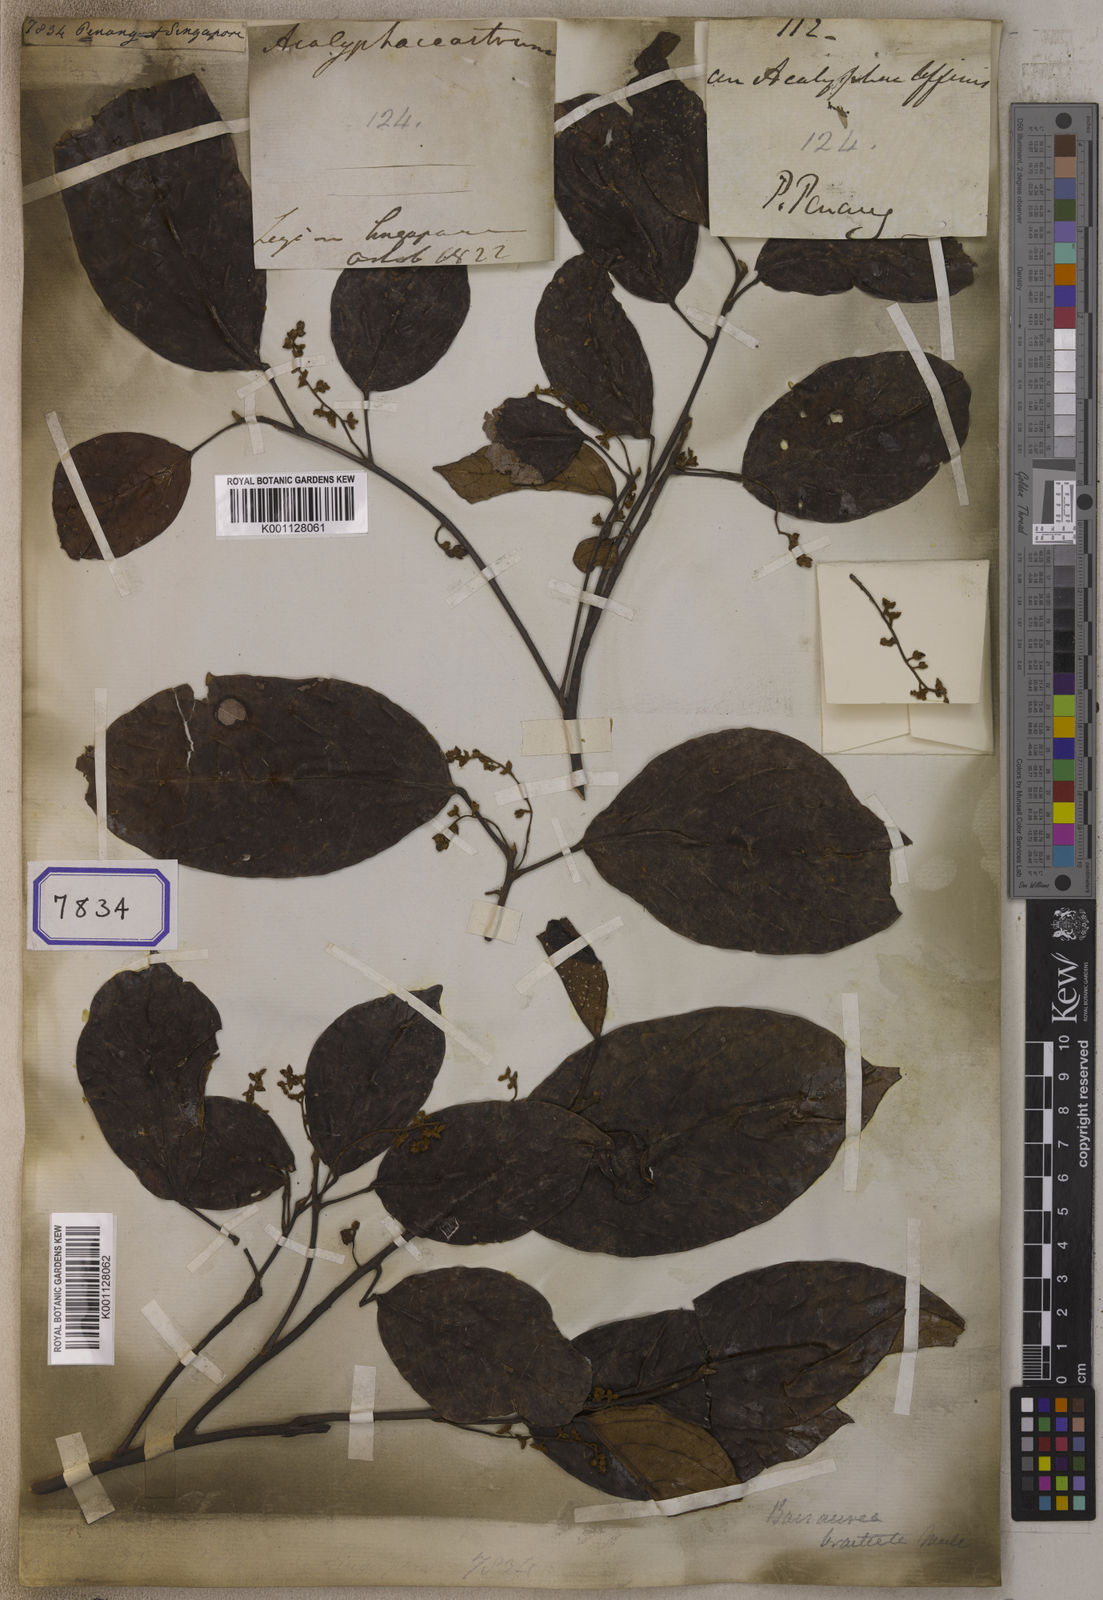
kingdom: Plantae
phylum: Tracheophyta
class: Magnoliopsida
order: Malpighiales
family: Euphorbiaceae
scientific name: Euphorbiaceae
